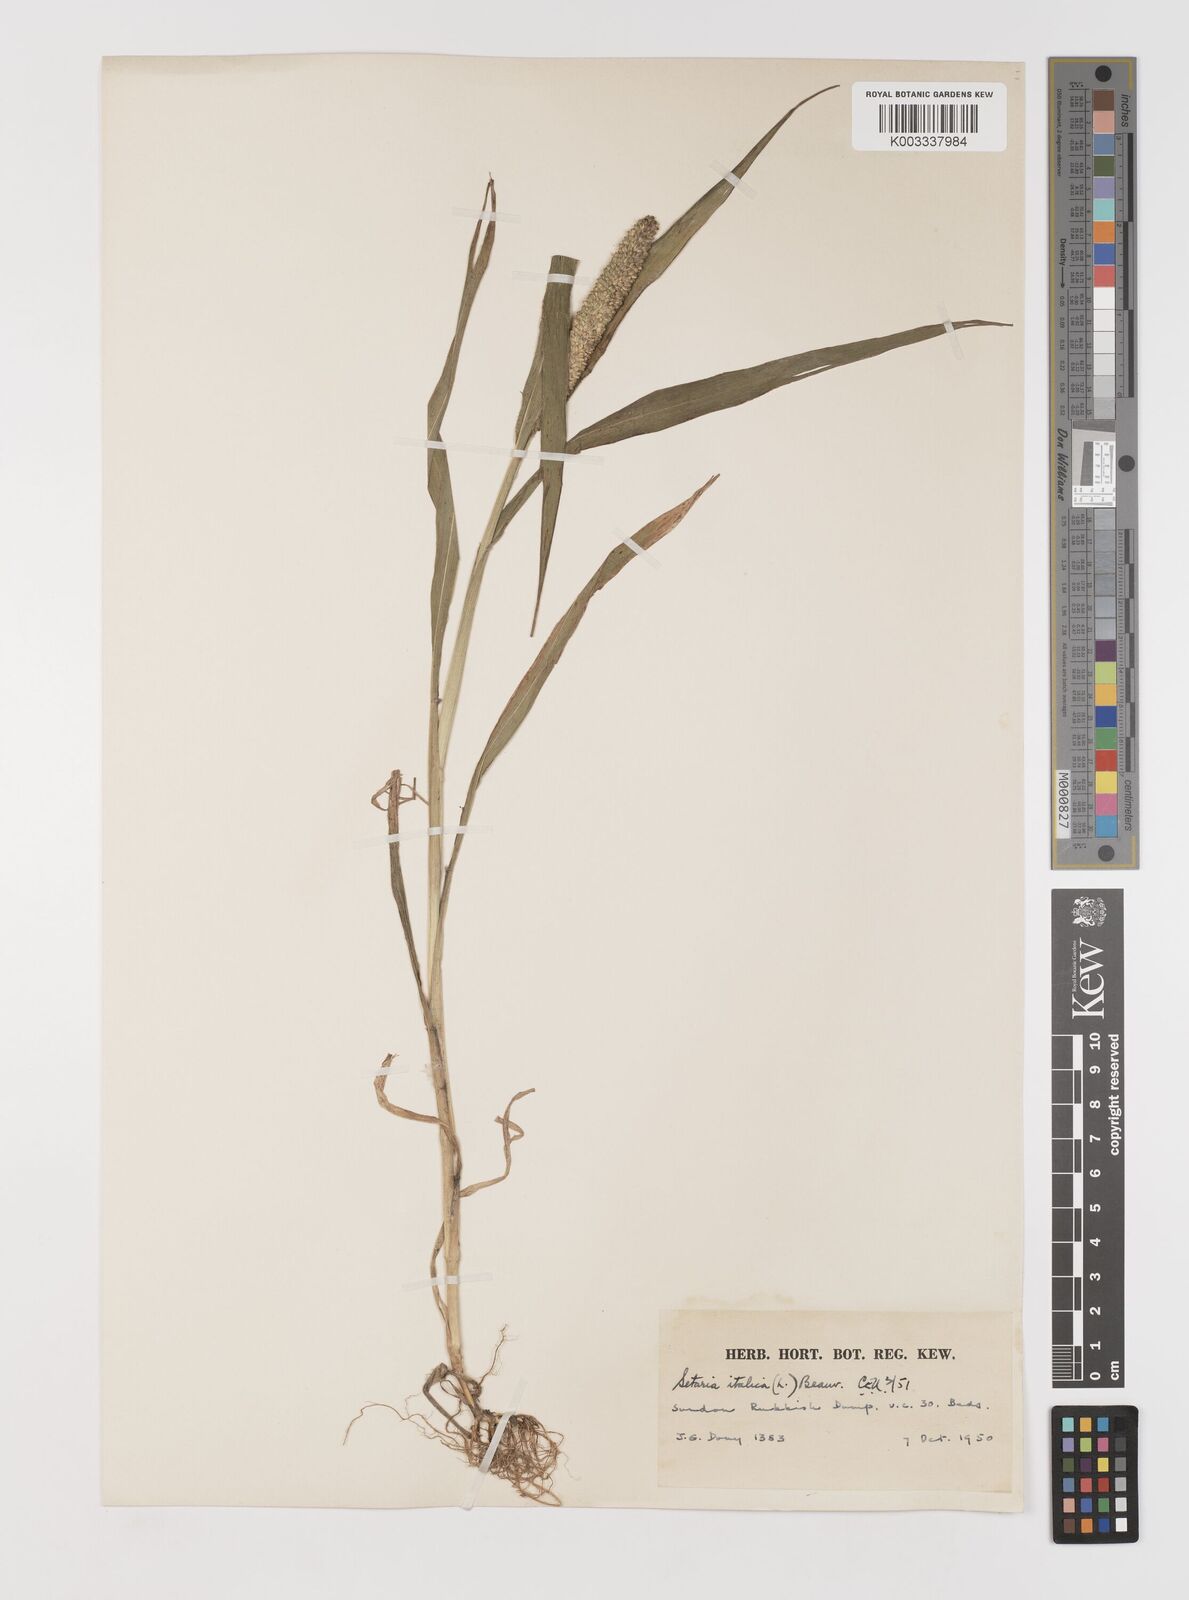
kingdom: Plantae
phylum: Tracheophyta
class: Liliopsida
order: Poales
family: Poaceae
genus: Setaria
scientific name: Setaria italica
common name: Foxtail bristle-grass
